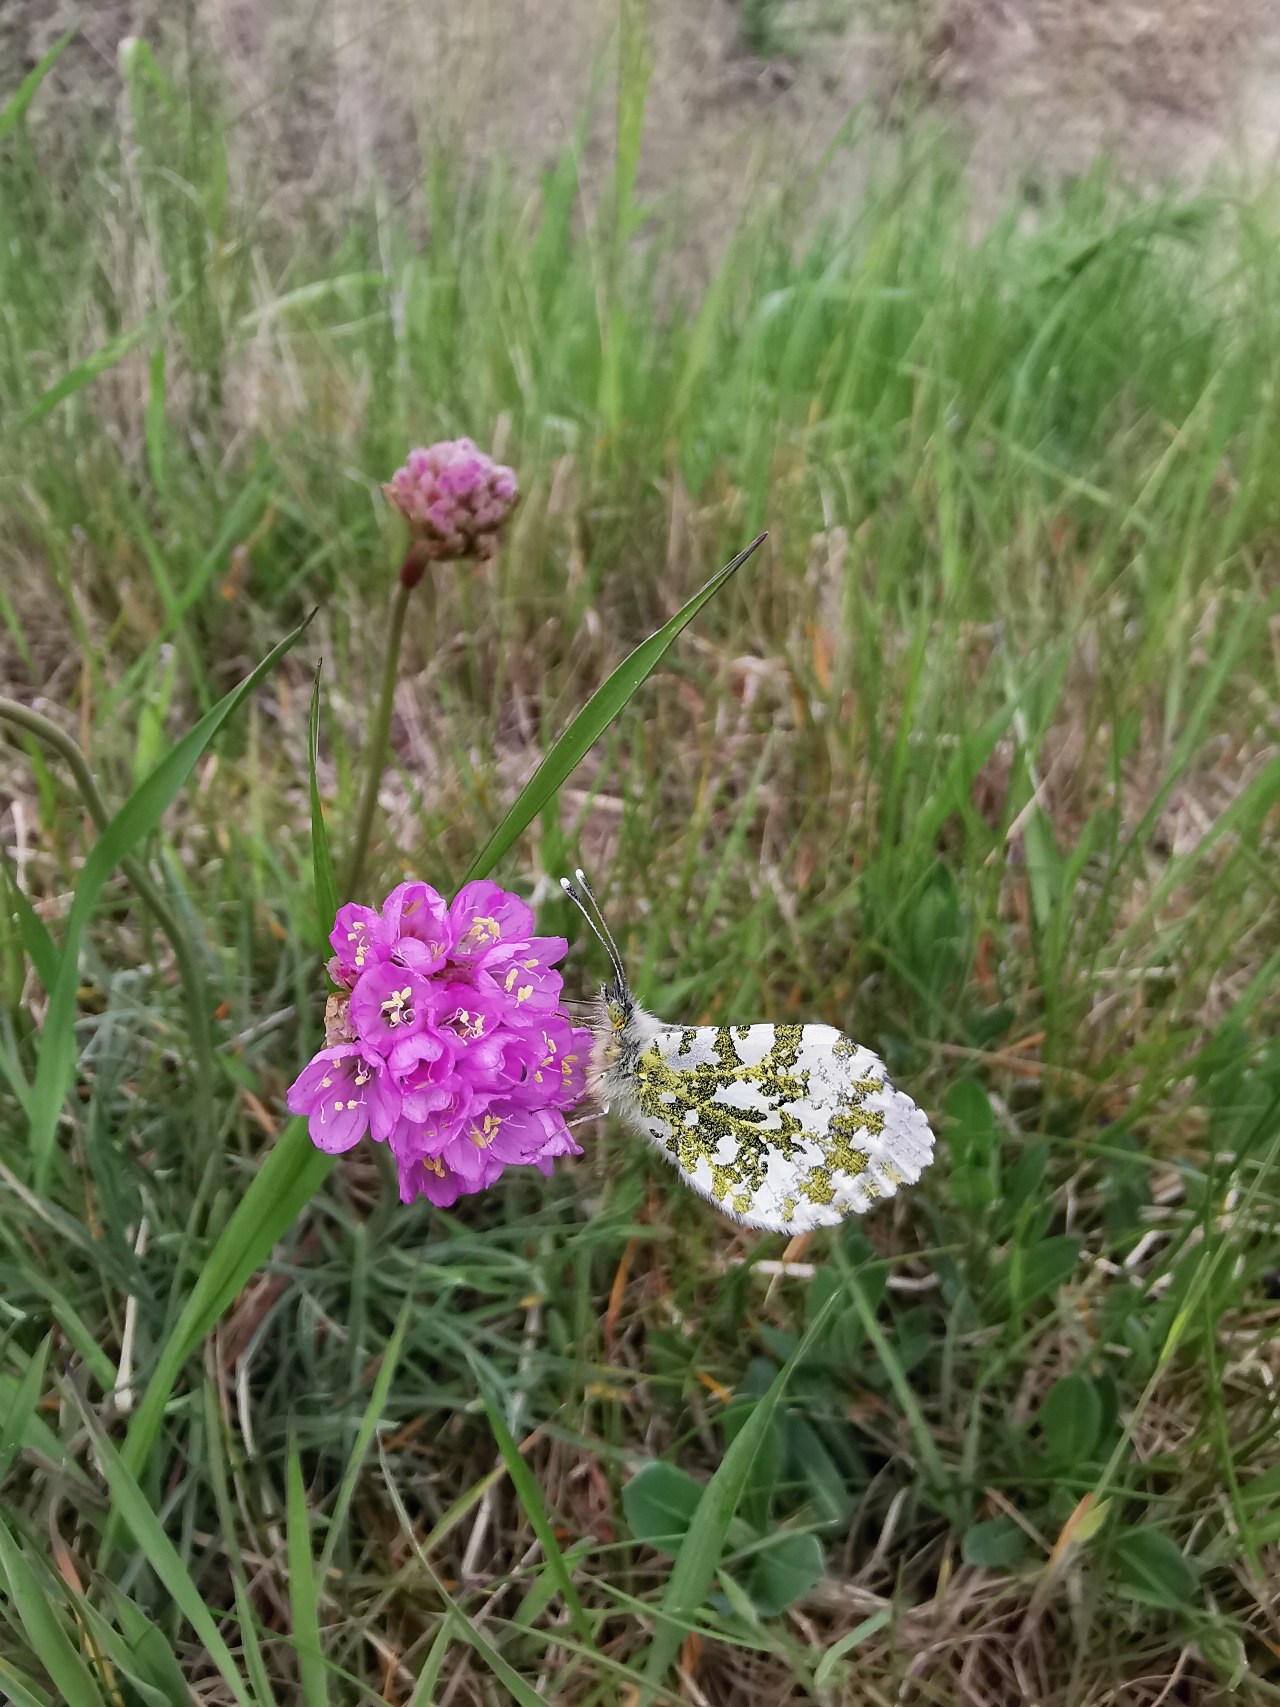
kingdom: Animalia
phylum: Arthropoda
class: Insecta
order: Lepidoptera
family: Pieridae
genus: Anthocharis
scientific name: Anthocharis cardamines
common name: Aurora
